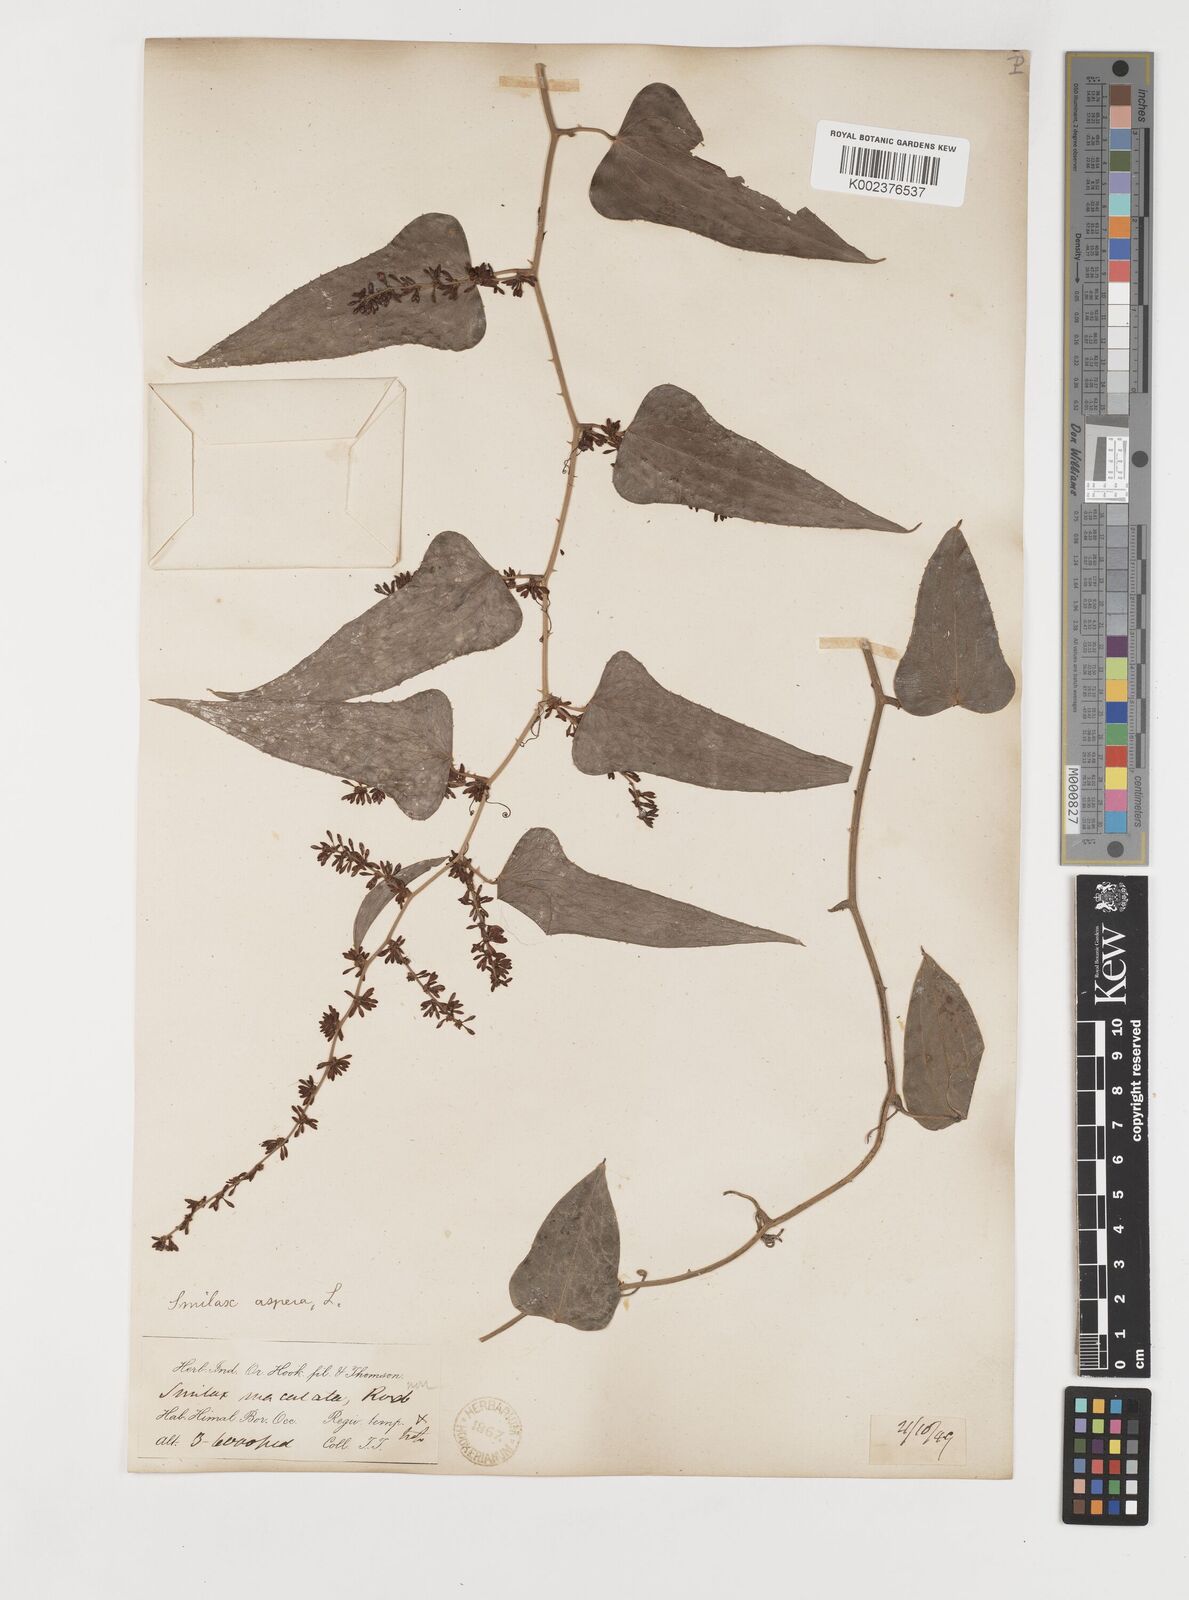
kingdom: Plantae
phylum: Tracheophyta
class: Liliopsida
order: Liliales
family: Smilacaceae
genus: Smilax
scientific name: Smilax aspera
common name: Common smilax
